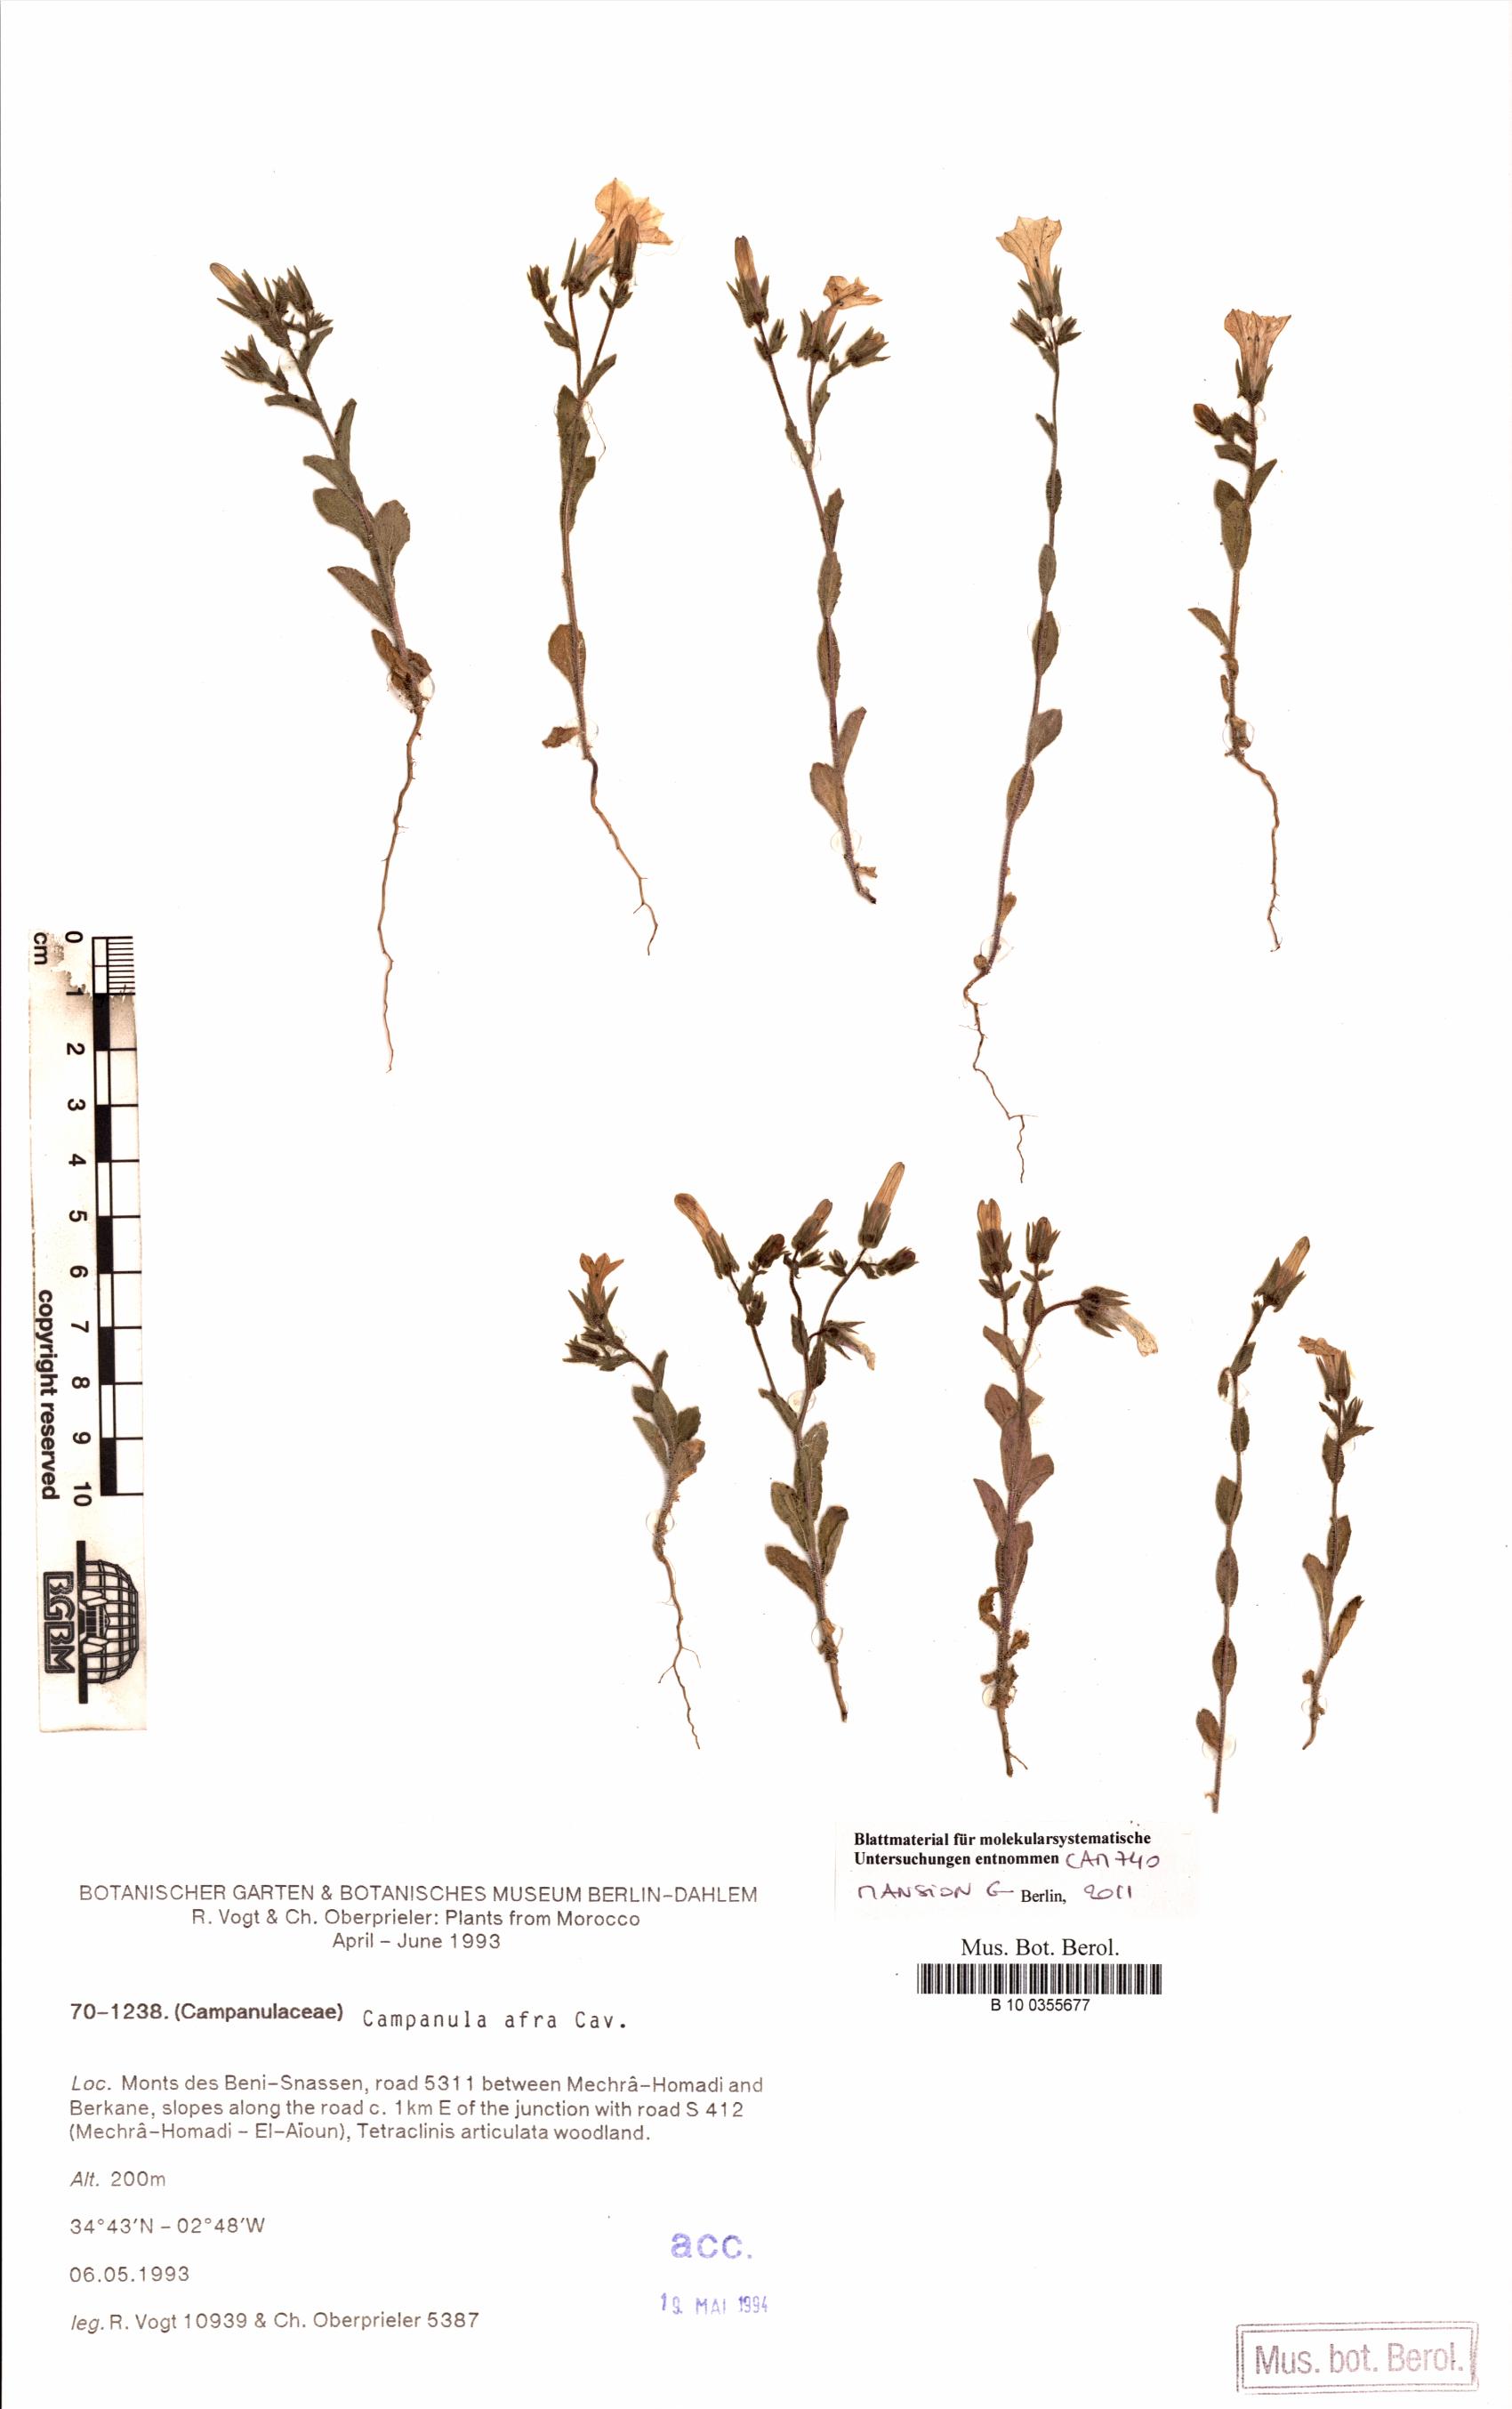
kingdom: Plantae
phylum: Tracheophyta
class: Magnoliopsida
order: Asterales
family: Campanulaceae
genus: Campanula
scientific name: Campanula afra
